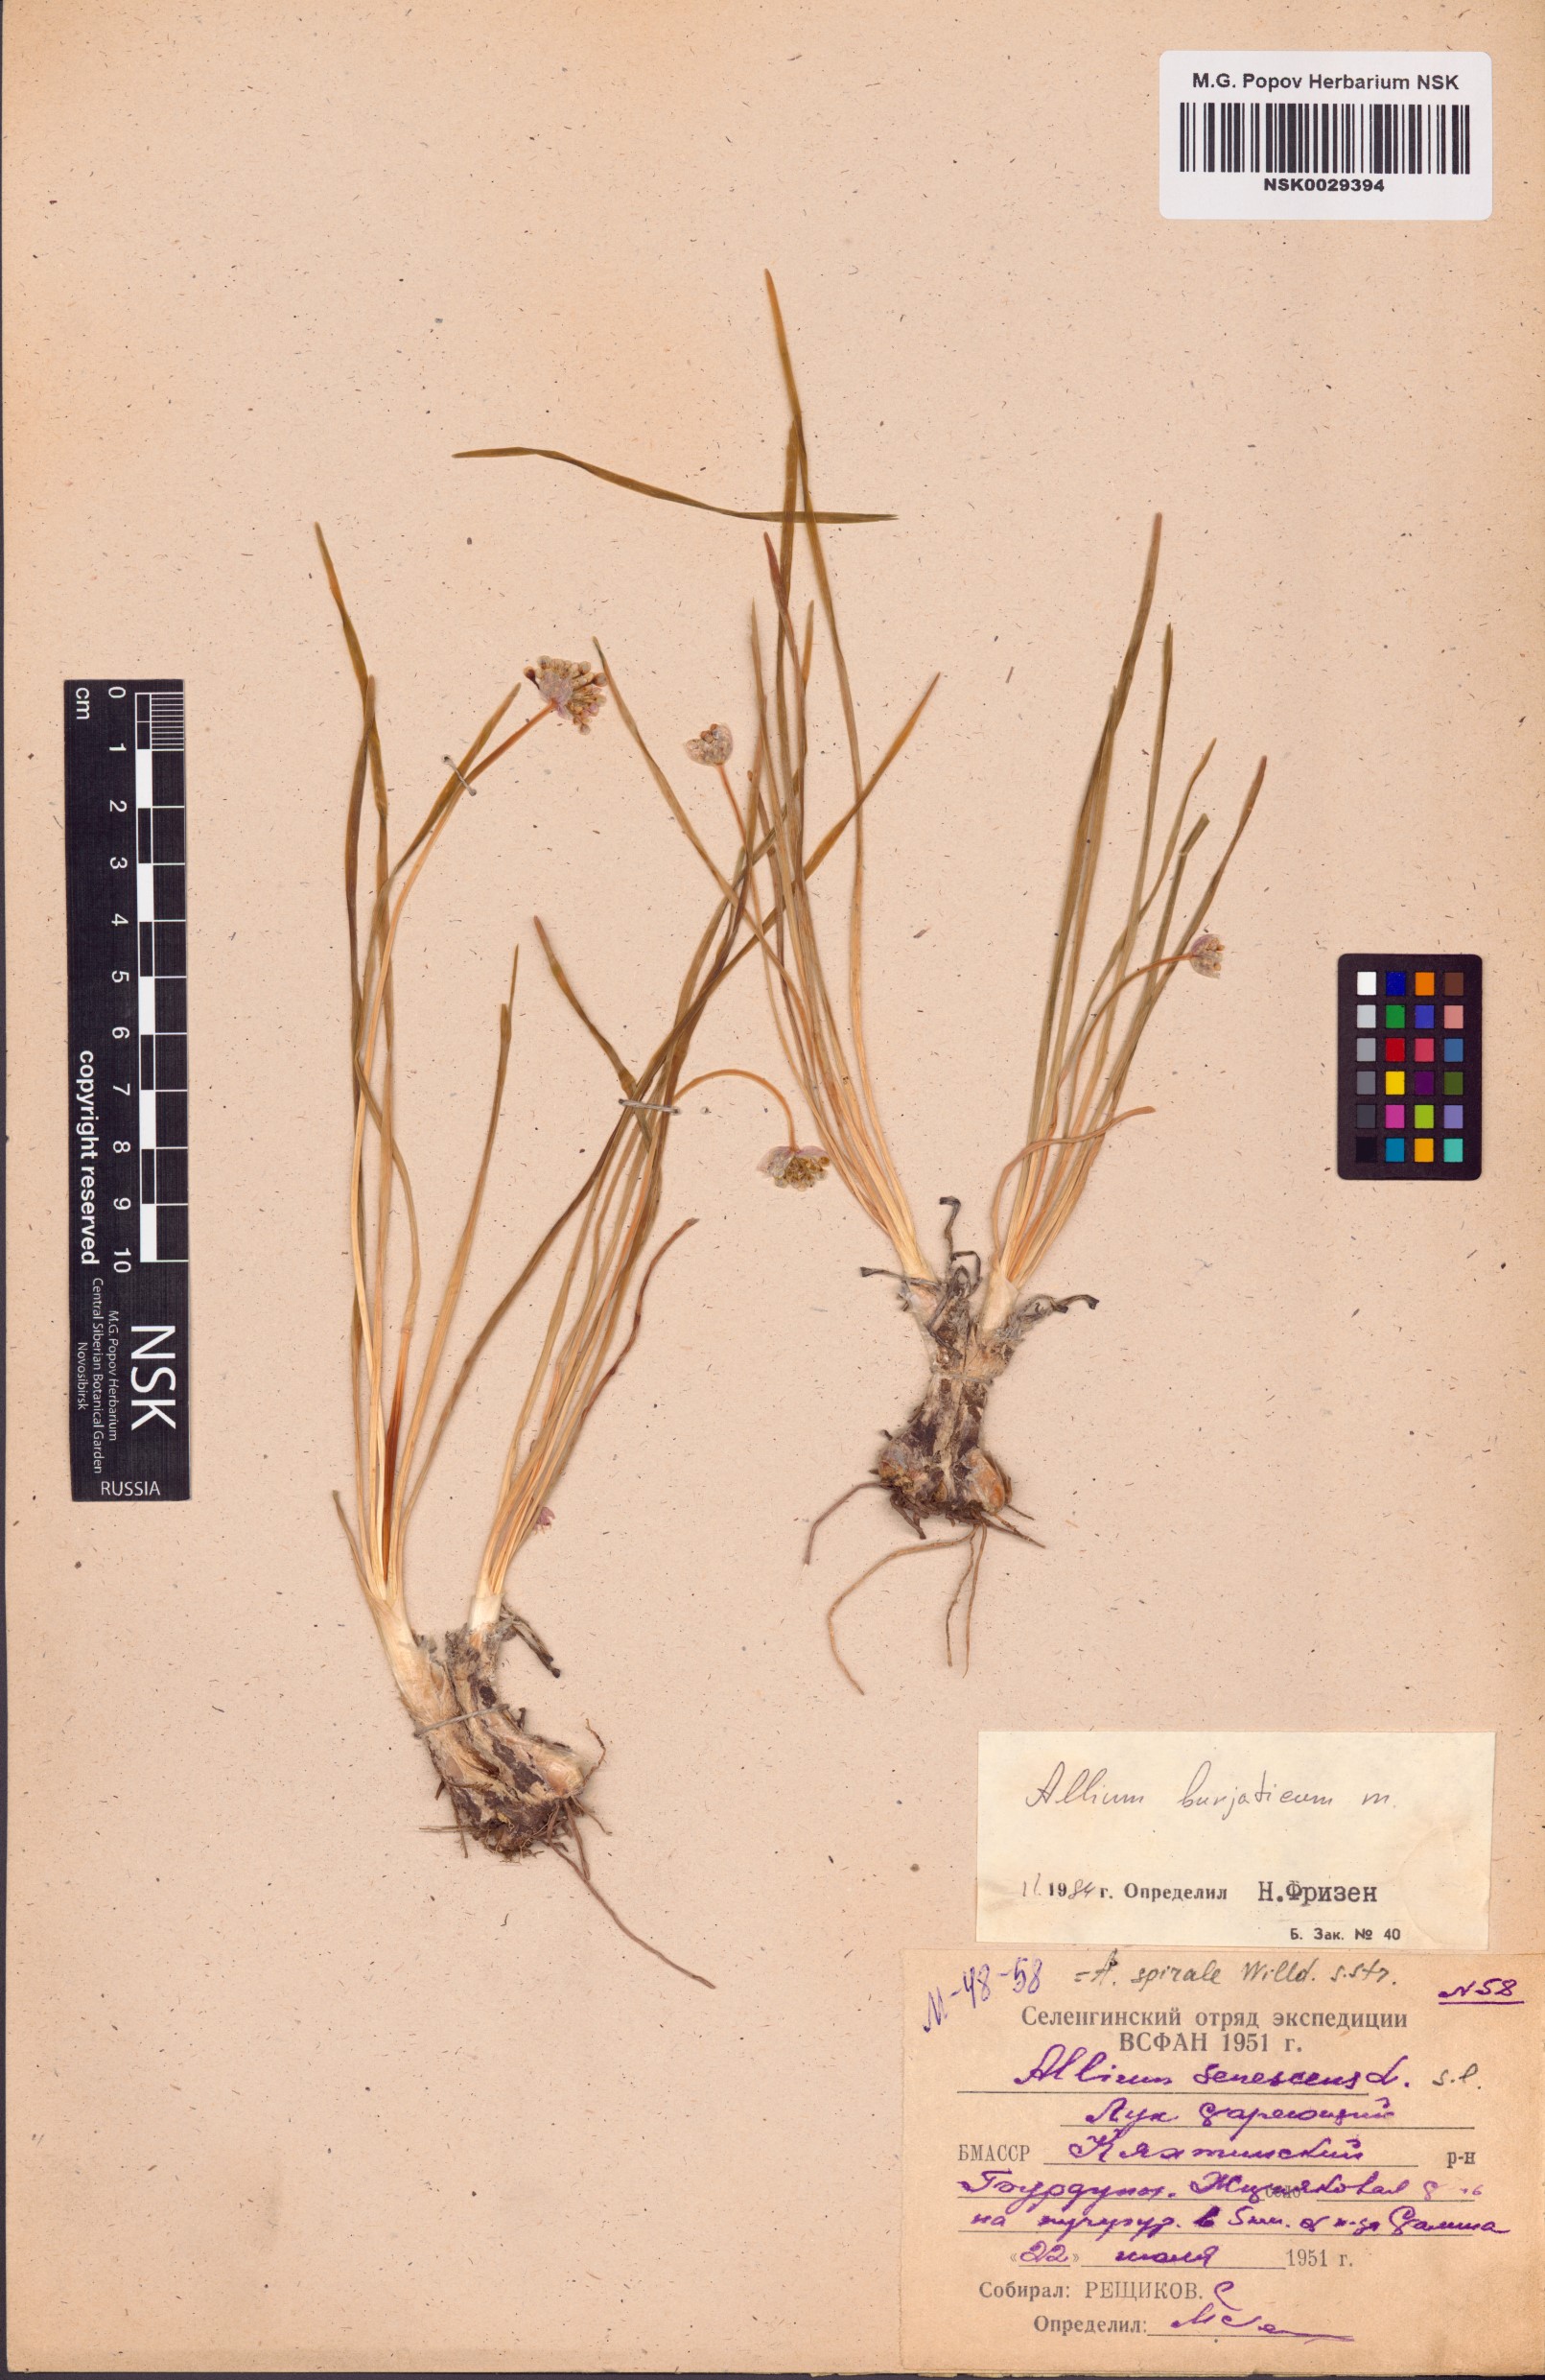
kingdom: Plantae
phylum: Tracheophyta
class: Liliopsida
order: Asparagales
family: Amaryllidaceae
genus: Allium
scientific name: Allium burjaticum
